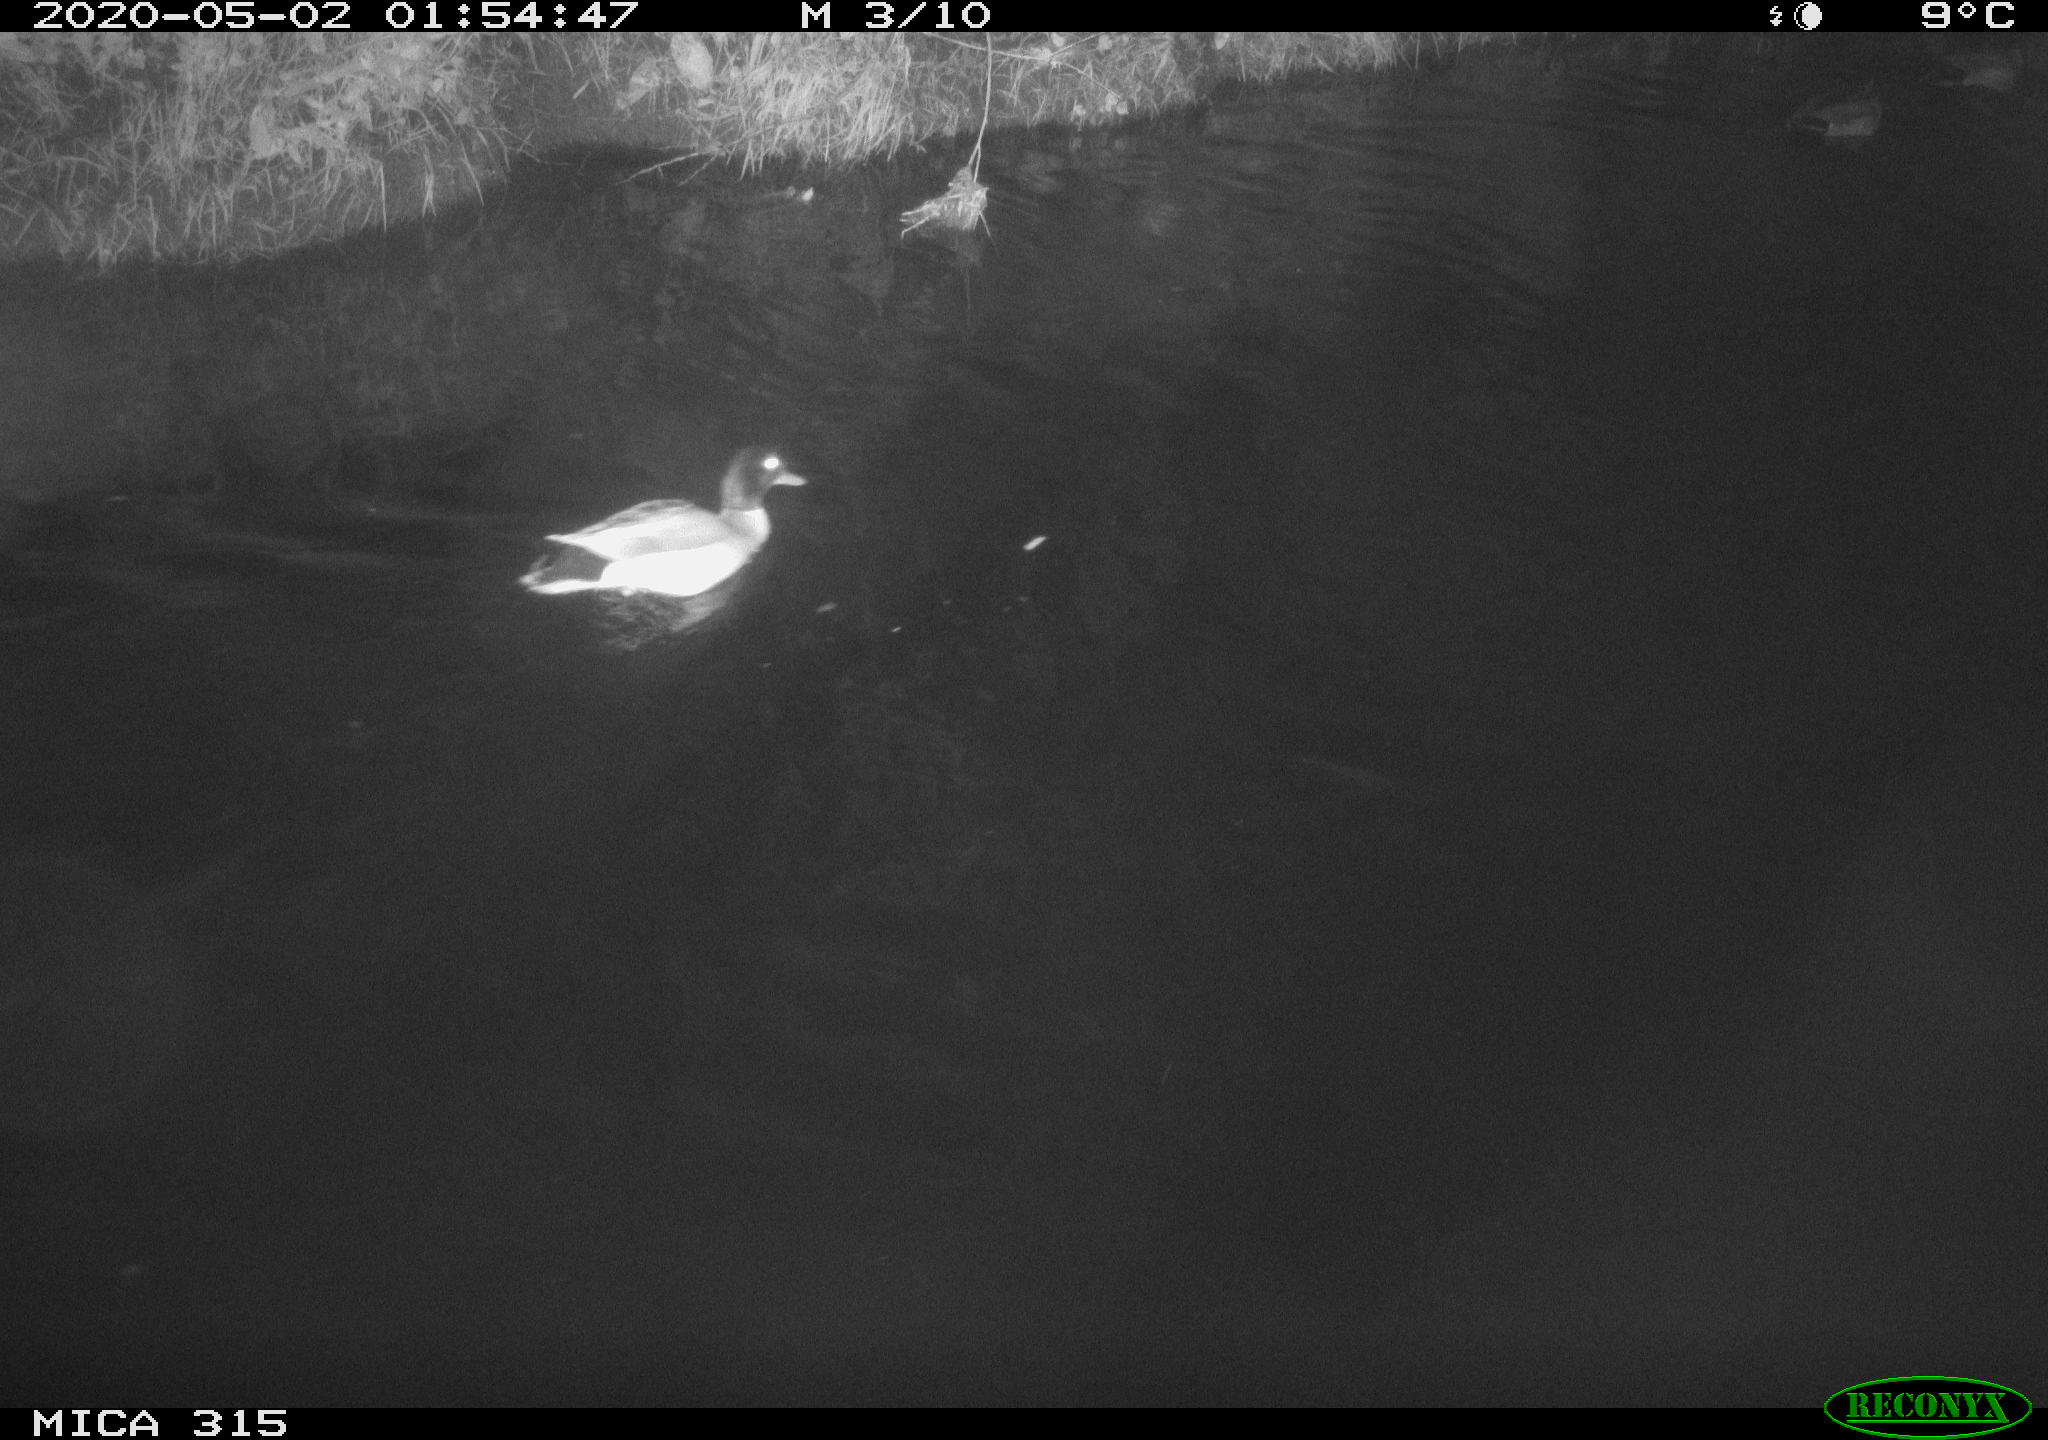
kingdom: Animalia
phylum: Chordata
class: Aves
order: Anseriformes
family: Anatidae
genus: Anas
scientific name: Anas platyrhynchos
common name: Mallard
